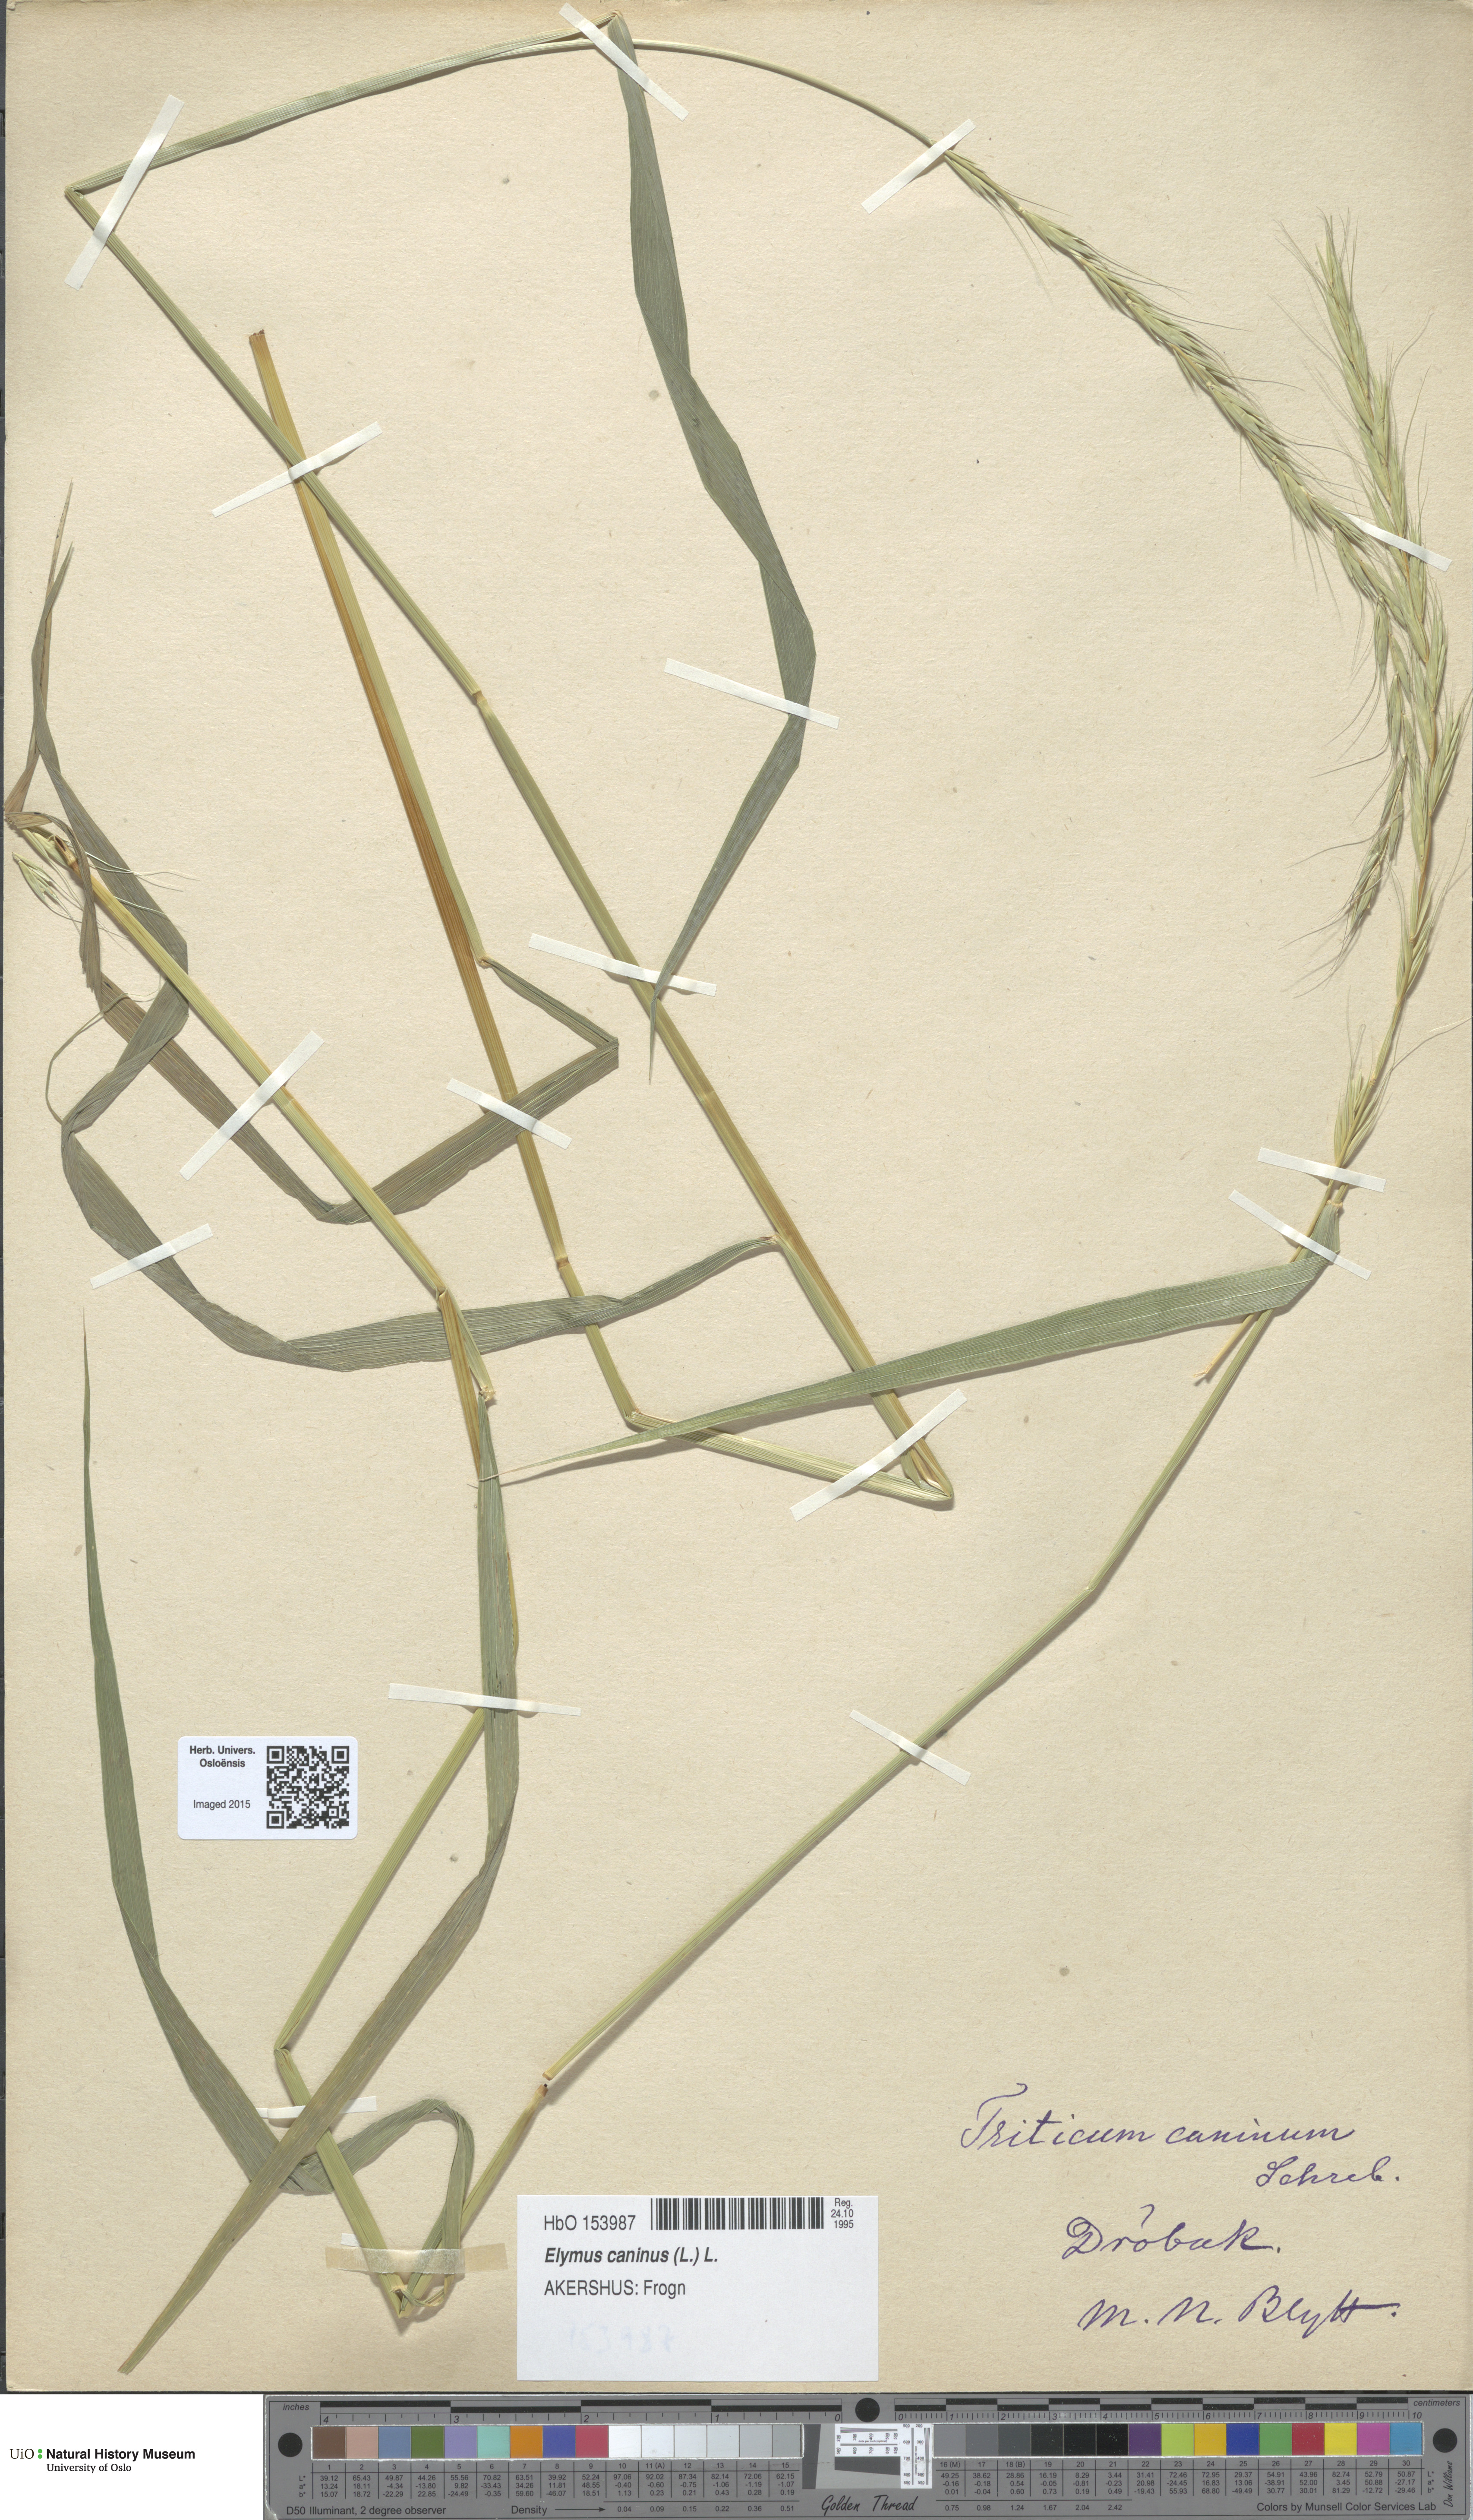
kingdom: Plantae
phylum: Tracheophyta
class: Liliopsida
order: Poales
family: Poaceae
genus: Elymus
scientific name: Elymus caninus
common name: Bearded couch
